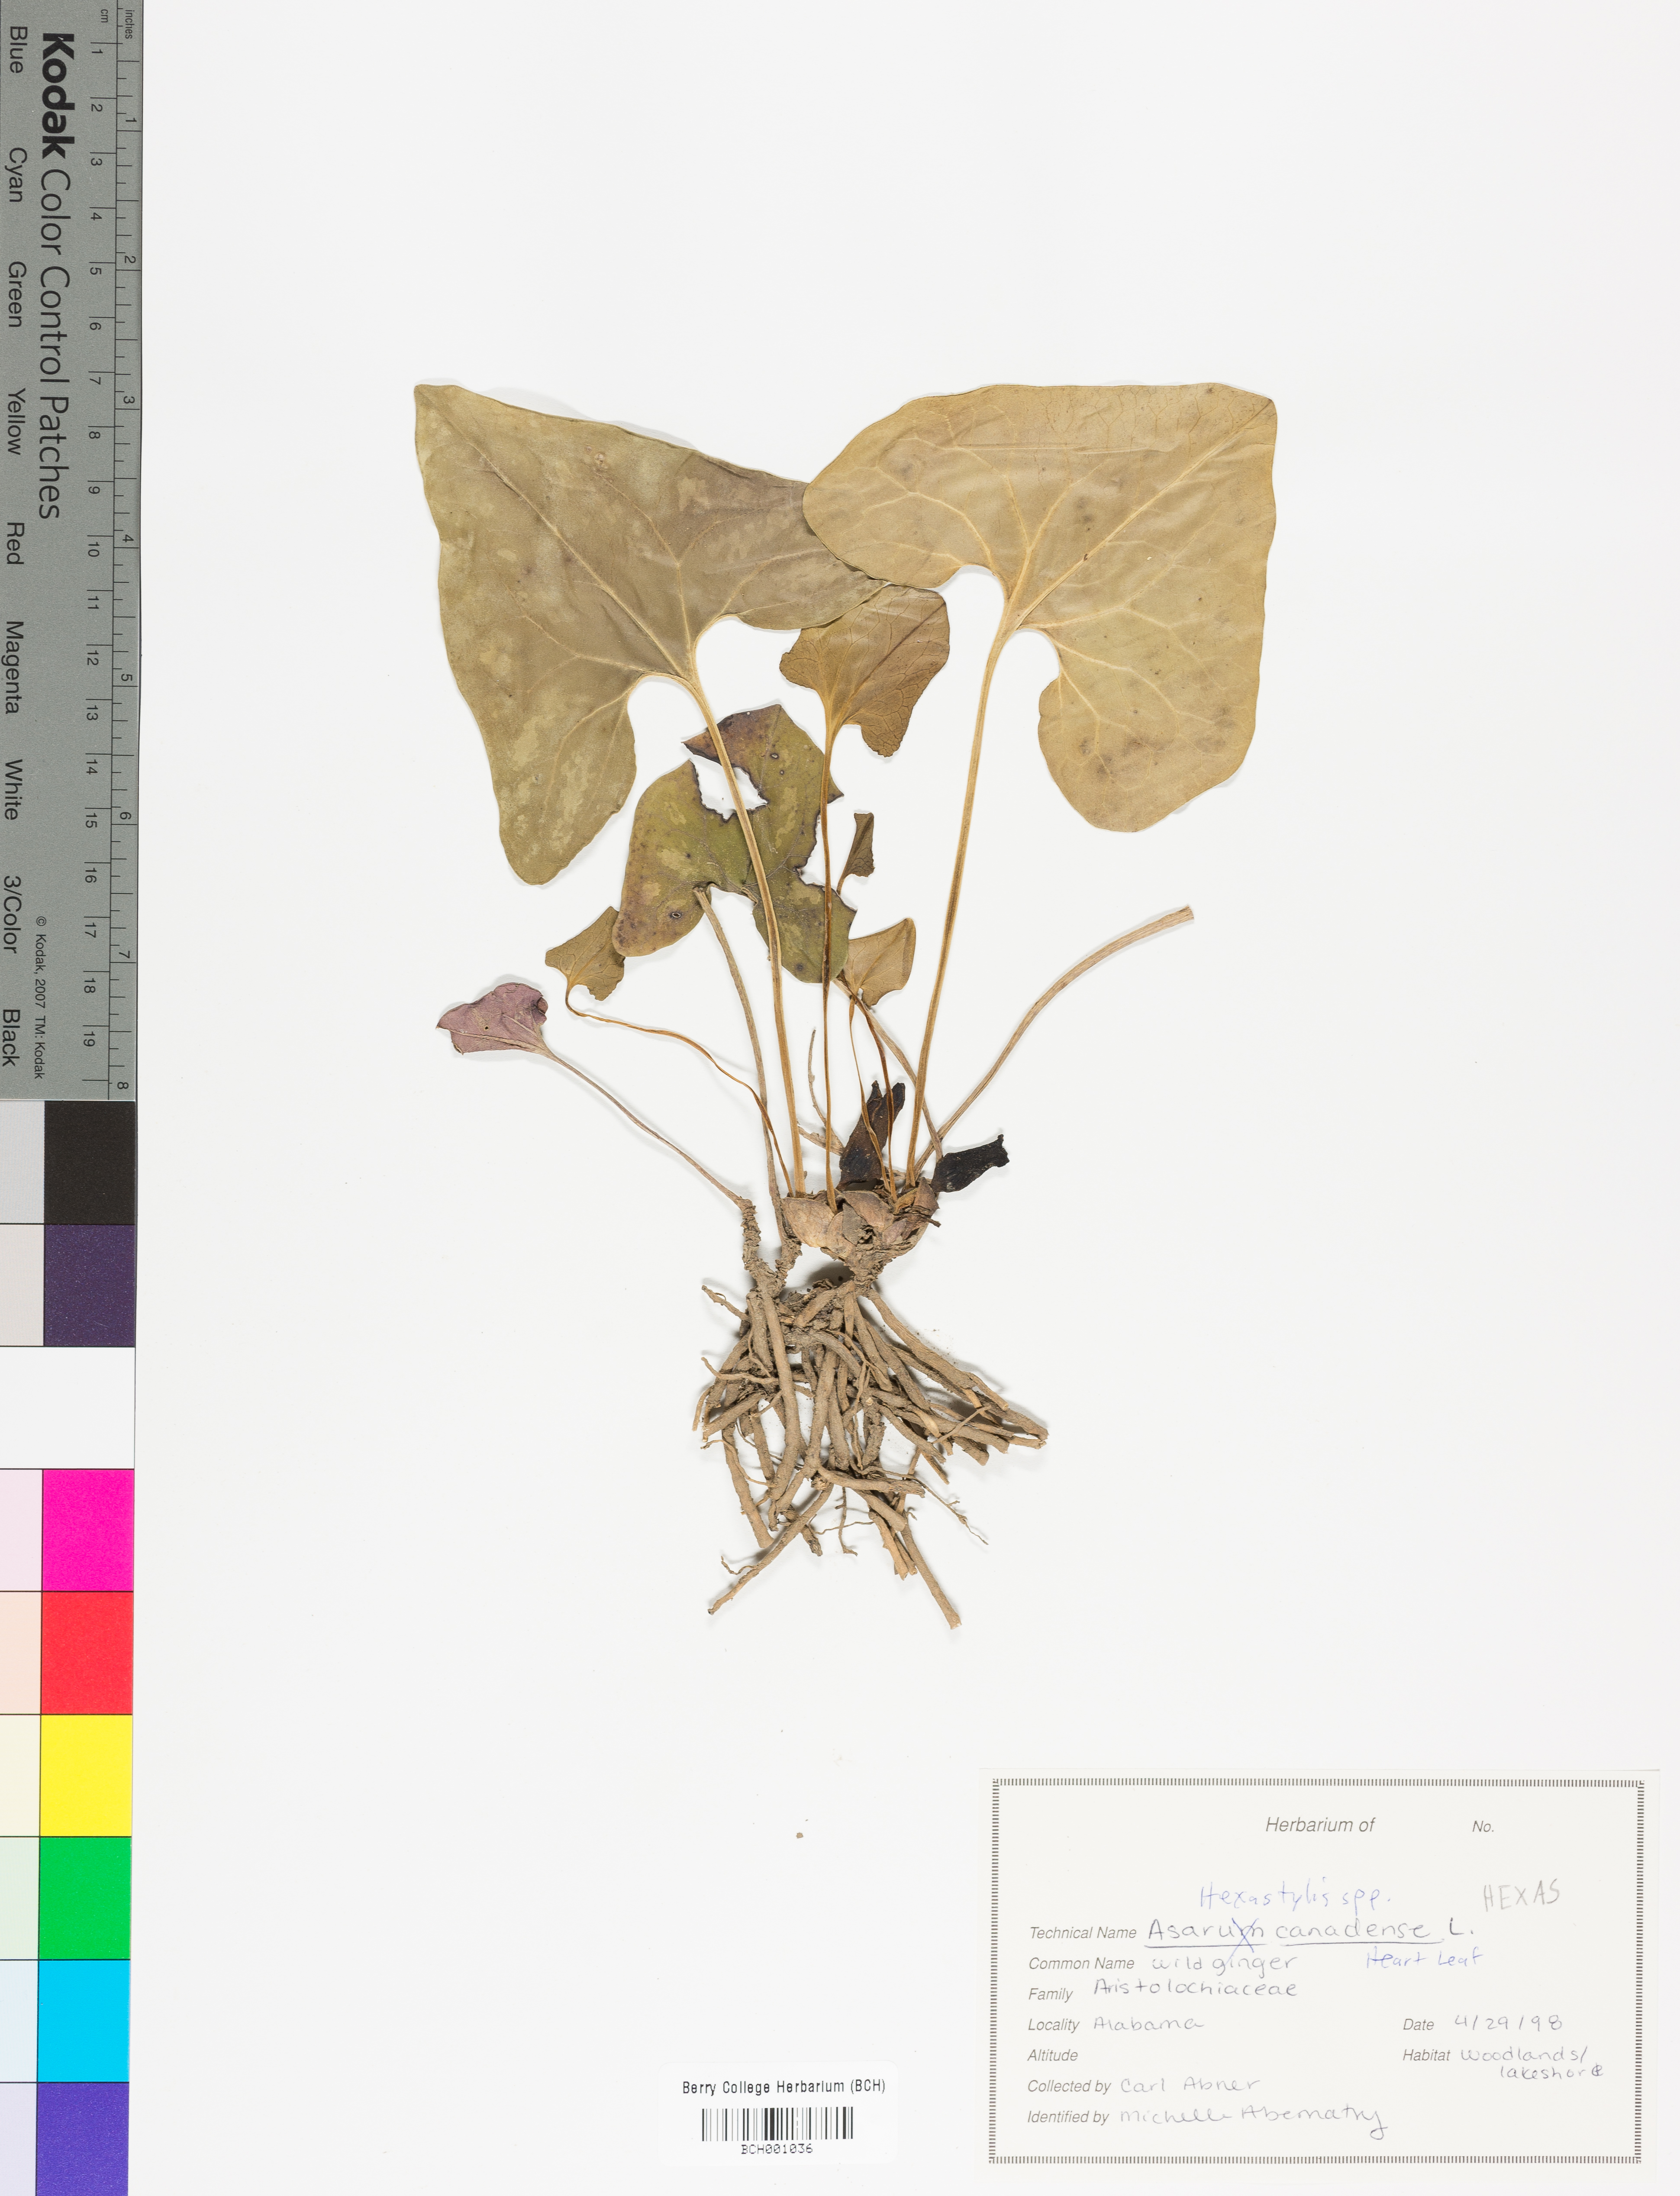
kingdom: Plantae
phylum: Tracheophyta
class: Magnoliopsida
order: Piperales
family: Aristolochiaceae
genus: Hexastylis
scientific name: Hexastylis
